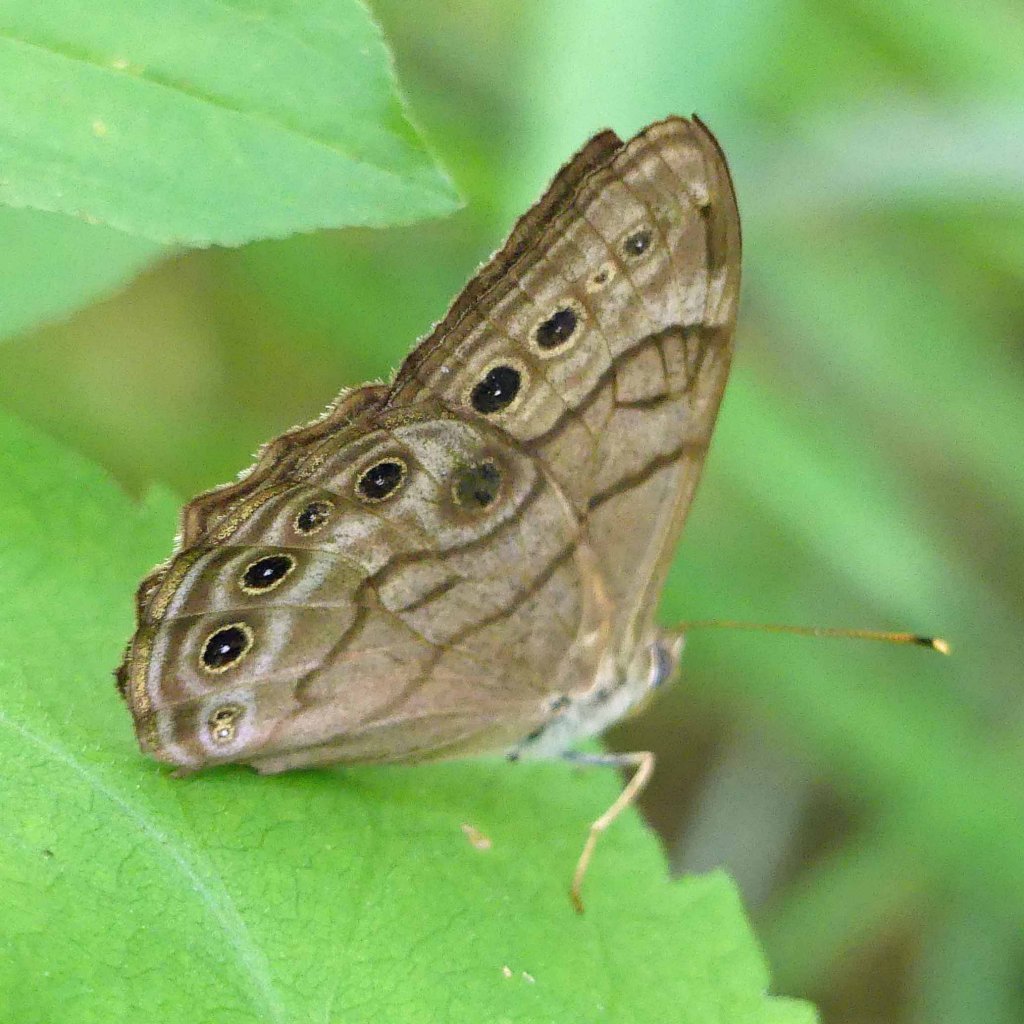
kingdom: Animalia
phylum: Arthropoda
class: Insecta
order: Lepidoptera
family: Nymphalidae
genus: Lethe
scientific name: Lethe anthedon
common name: Northern Pearly-Eye
